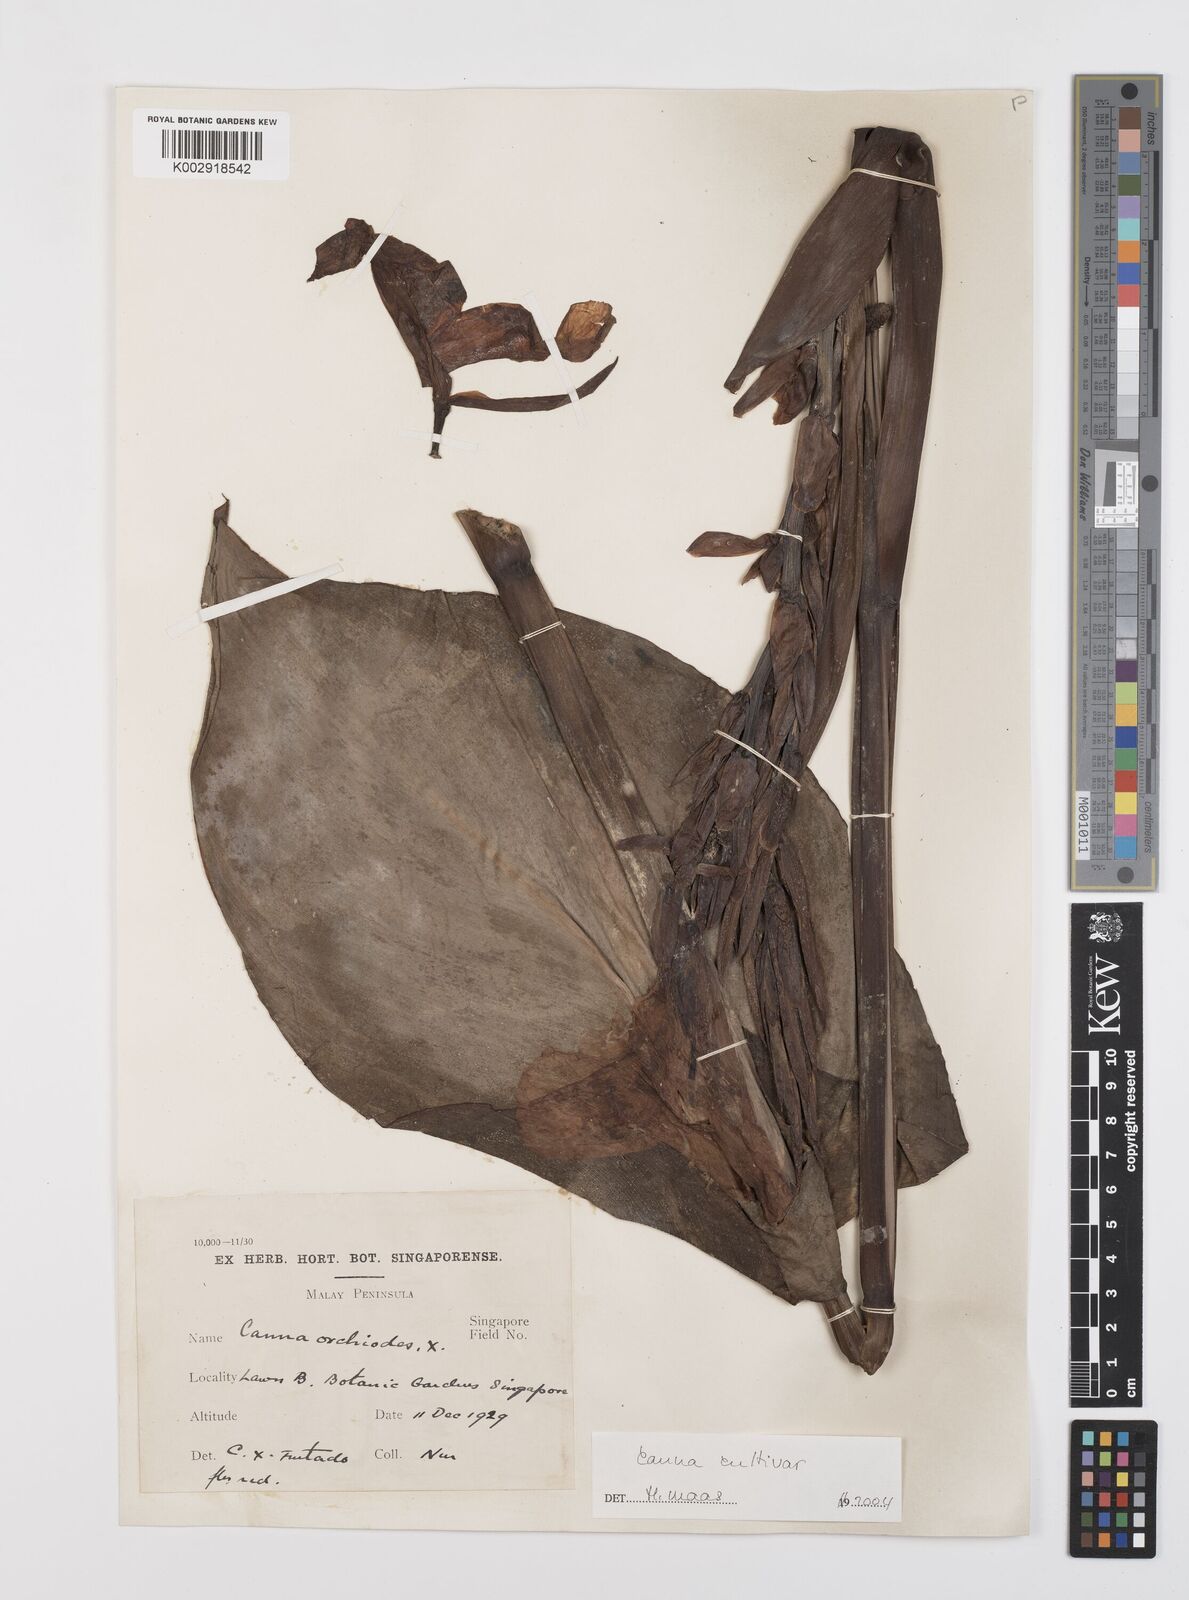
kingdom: Plantae
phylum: Tracheophyta
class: Liliopsida
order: Zingiberales
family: Cannaceae
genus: Canna
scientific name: Canna
